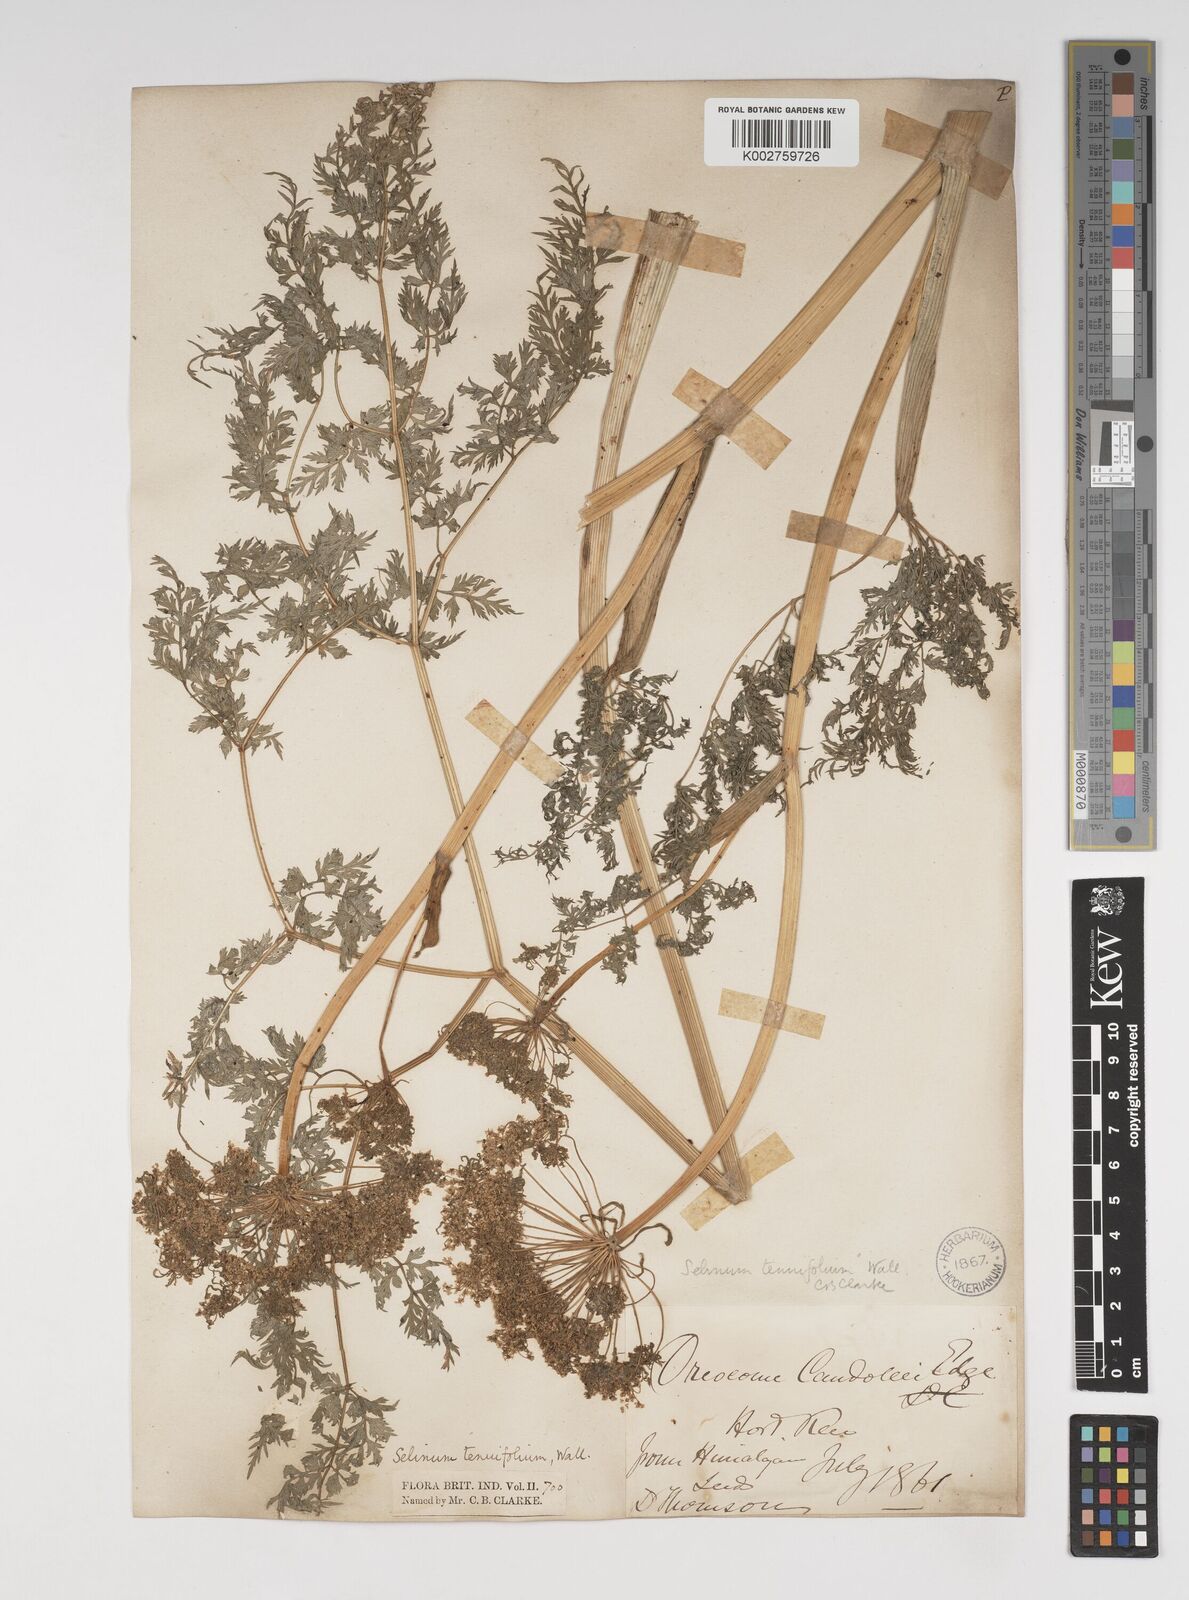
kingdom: Plantae
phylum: Tracheophyta
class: Magnoliopsida
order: Apiales
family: Apiaceae
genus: Selinum
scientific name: Selinum carvifolia
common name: Cambridge milk-parsley
